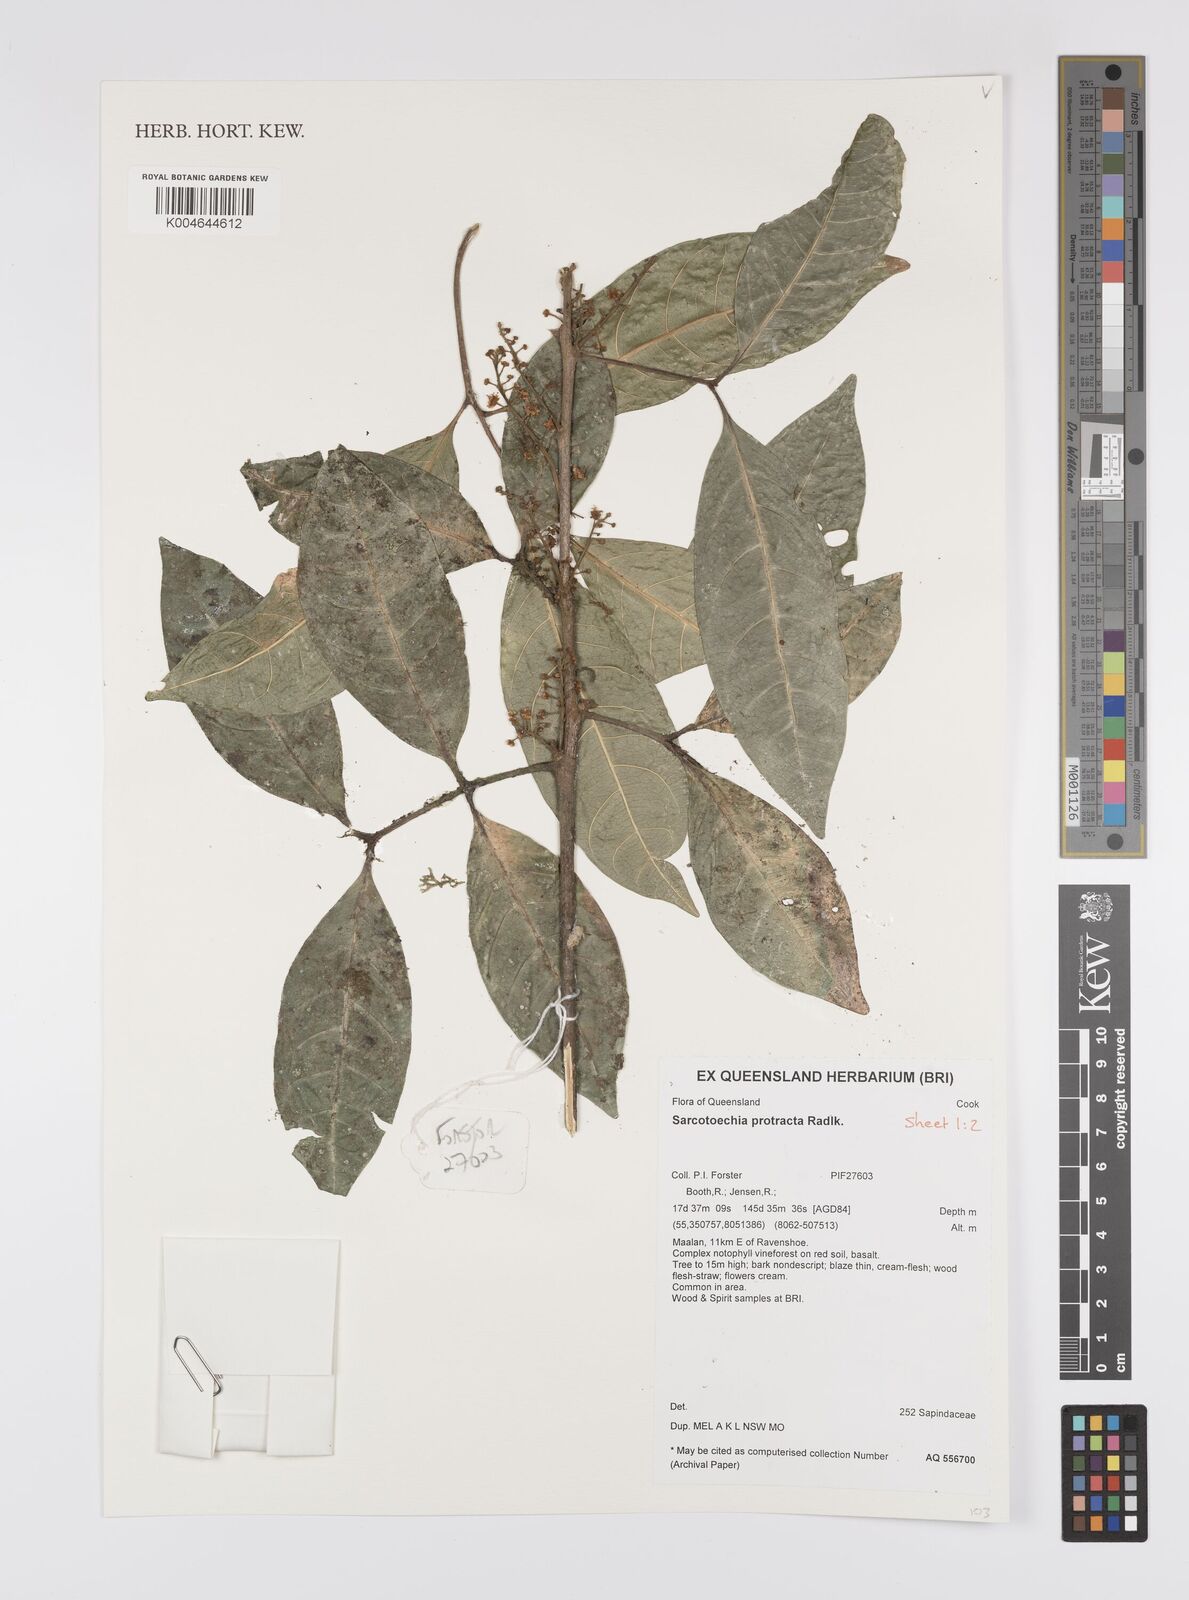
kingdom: Plantae
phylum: Tracheophyta
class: Magnoliopsida
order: Sapindales
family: Sapindaceae
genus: Sarcotoechia
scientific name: Sarcotoechia protracta
